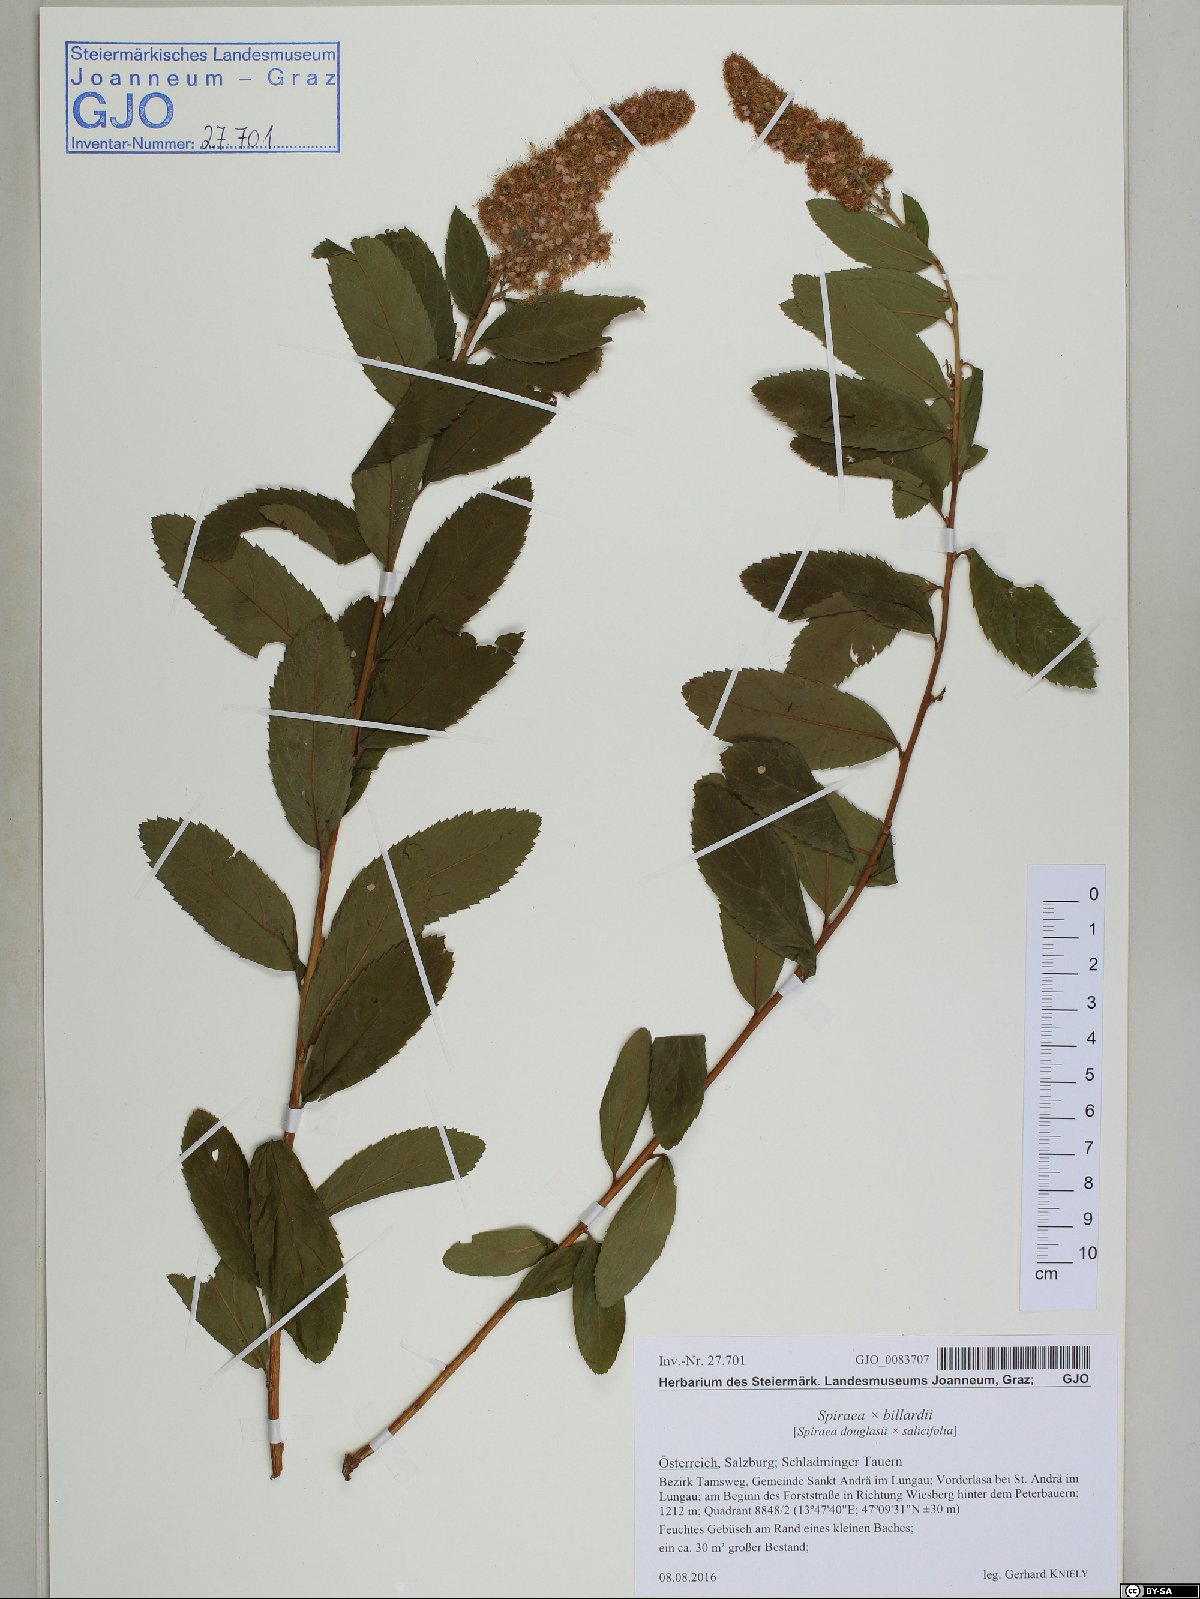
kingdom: Plantae
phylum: Tracheophyta
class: Magnoliopsida
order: Rosales
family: Rosaceae
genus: Spiraea
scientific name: Spiraea billardii
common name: Billard's bridewort
